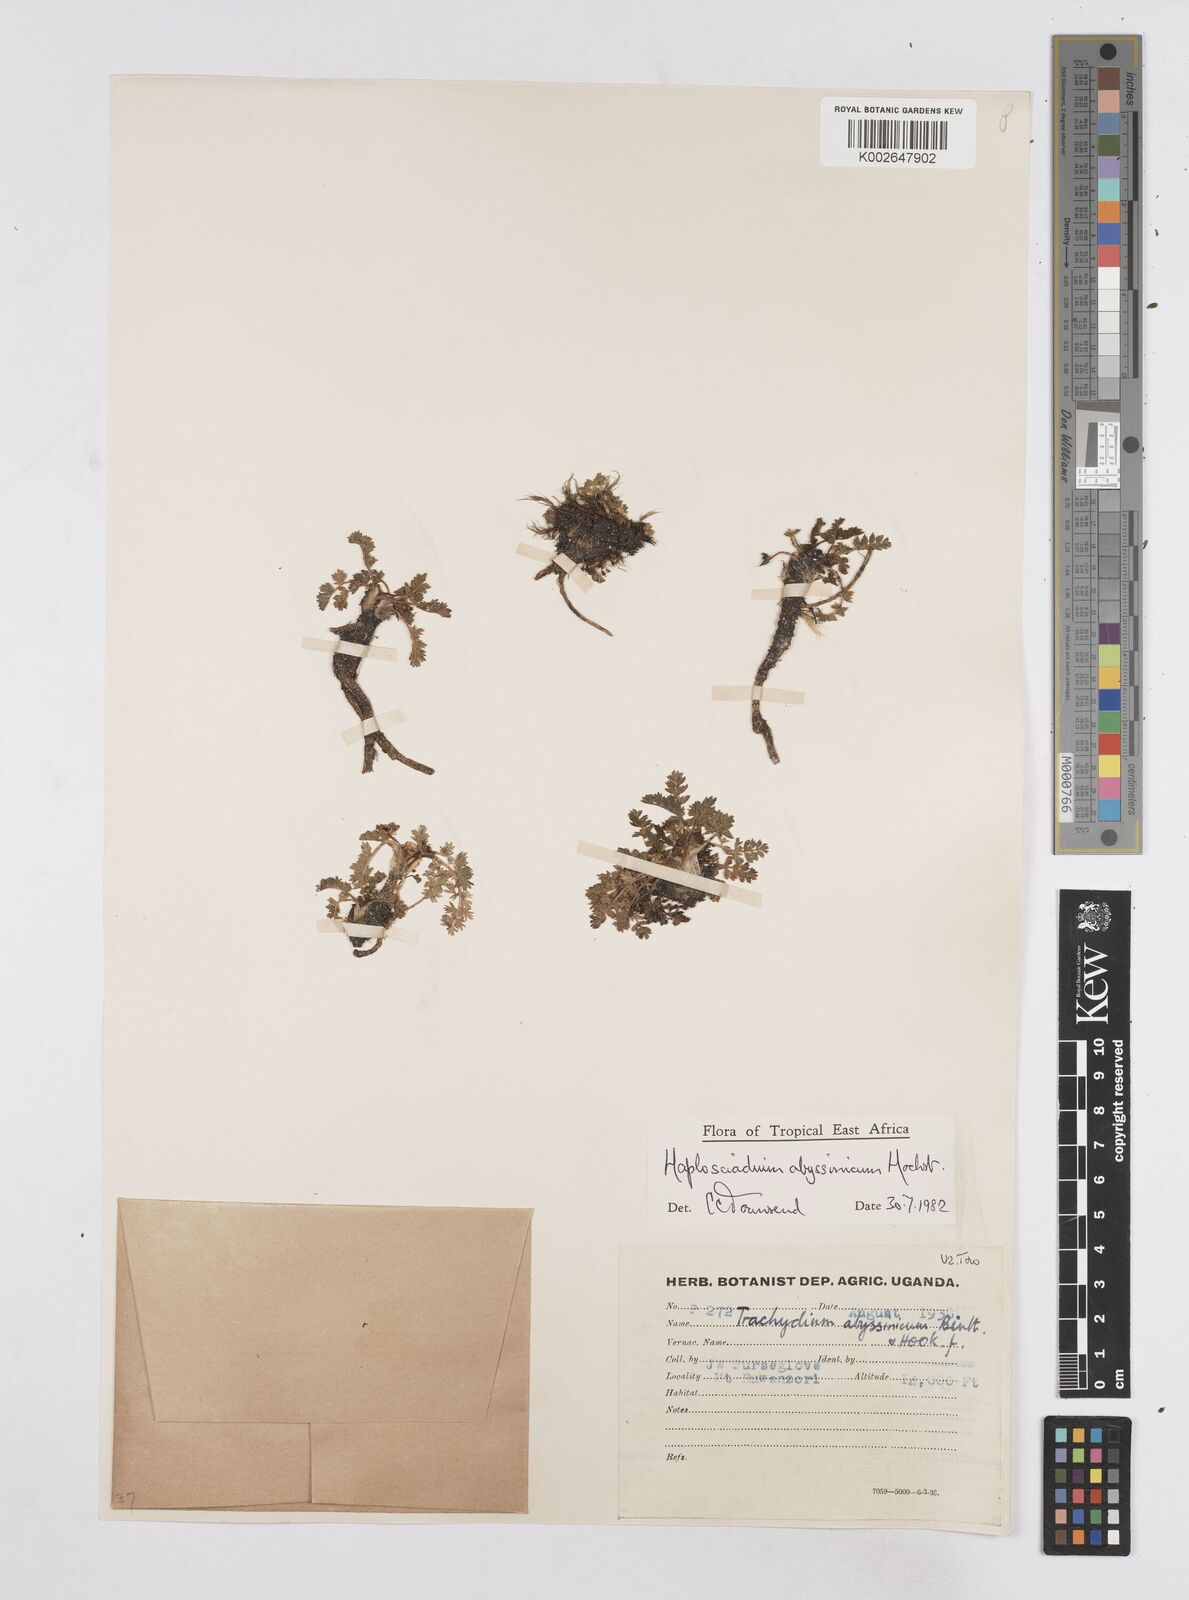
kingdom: Plantae
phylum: Tracheophyta
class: Magnoliopsida
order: Apiales
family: Apiaceae
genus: Haplosciadium
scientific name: Haplosciadium abyssinicum
